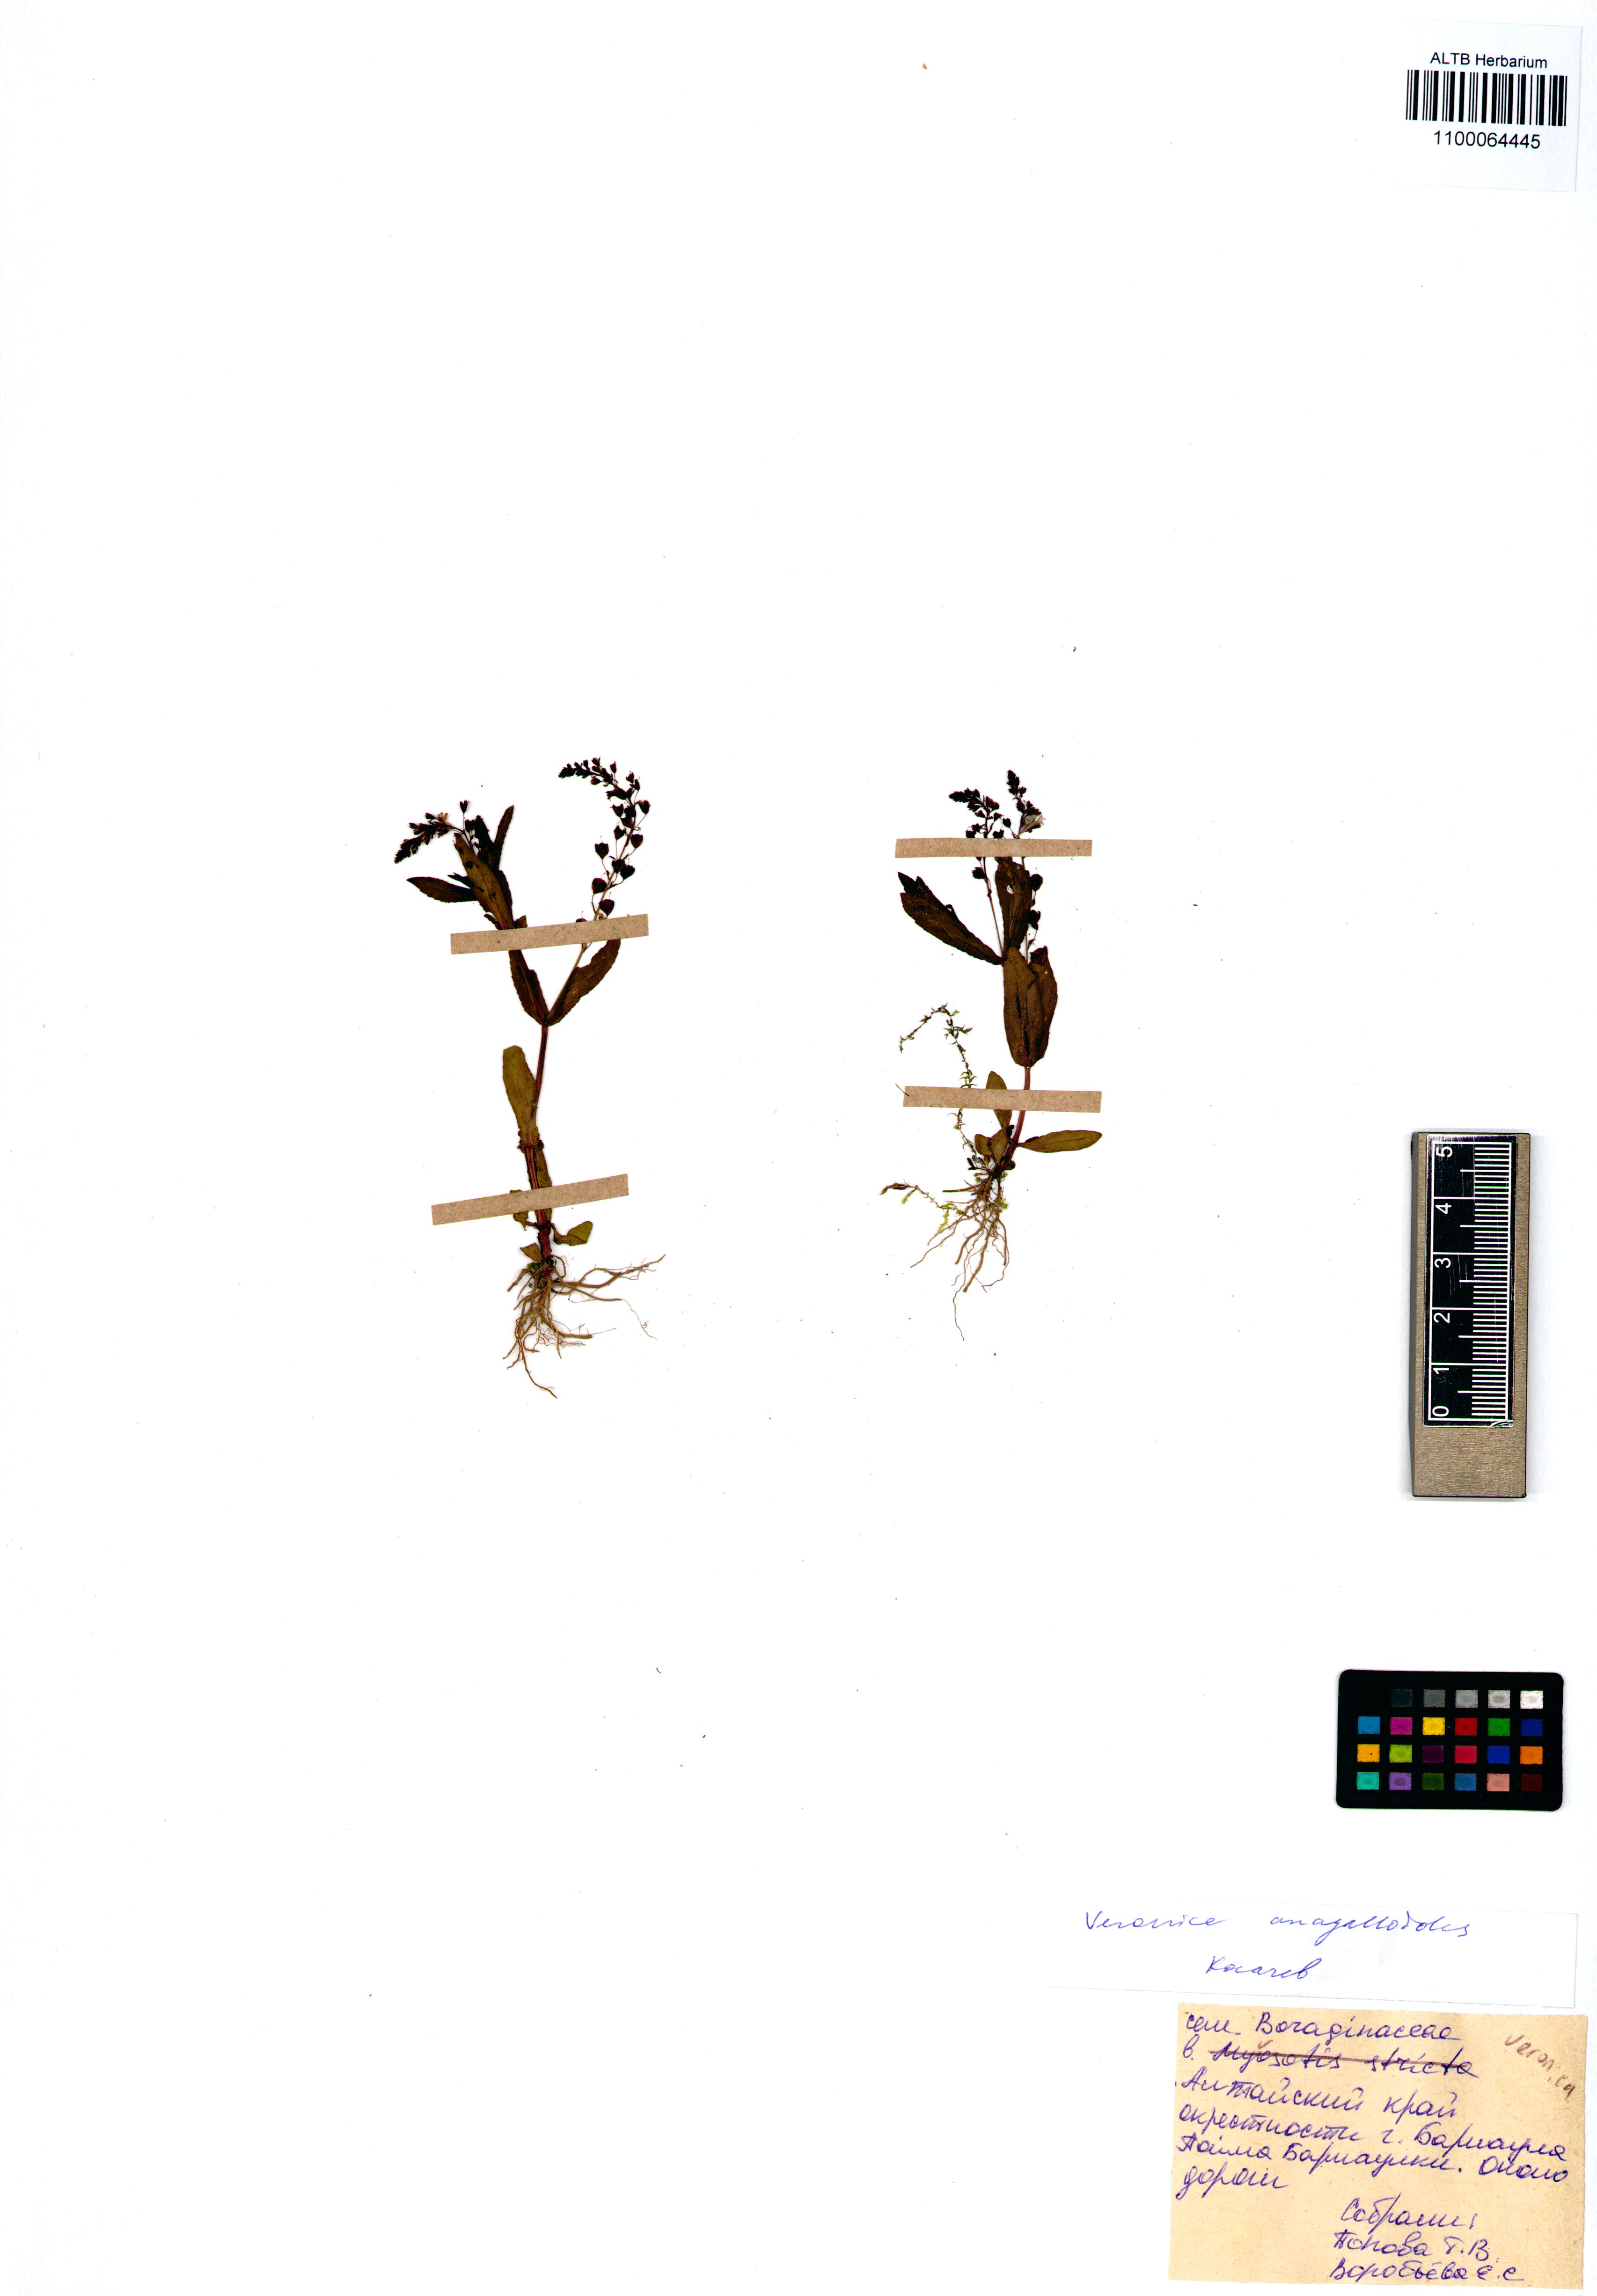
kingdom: Plantae
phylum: Tracheophyta
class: Magnoliopsida
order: Lamiales
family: Plantaginaceae
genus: Veronica
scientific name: Veronica anagalloides
